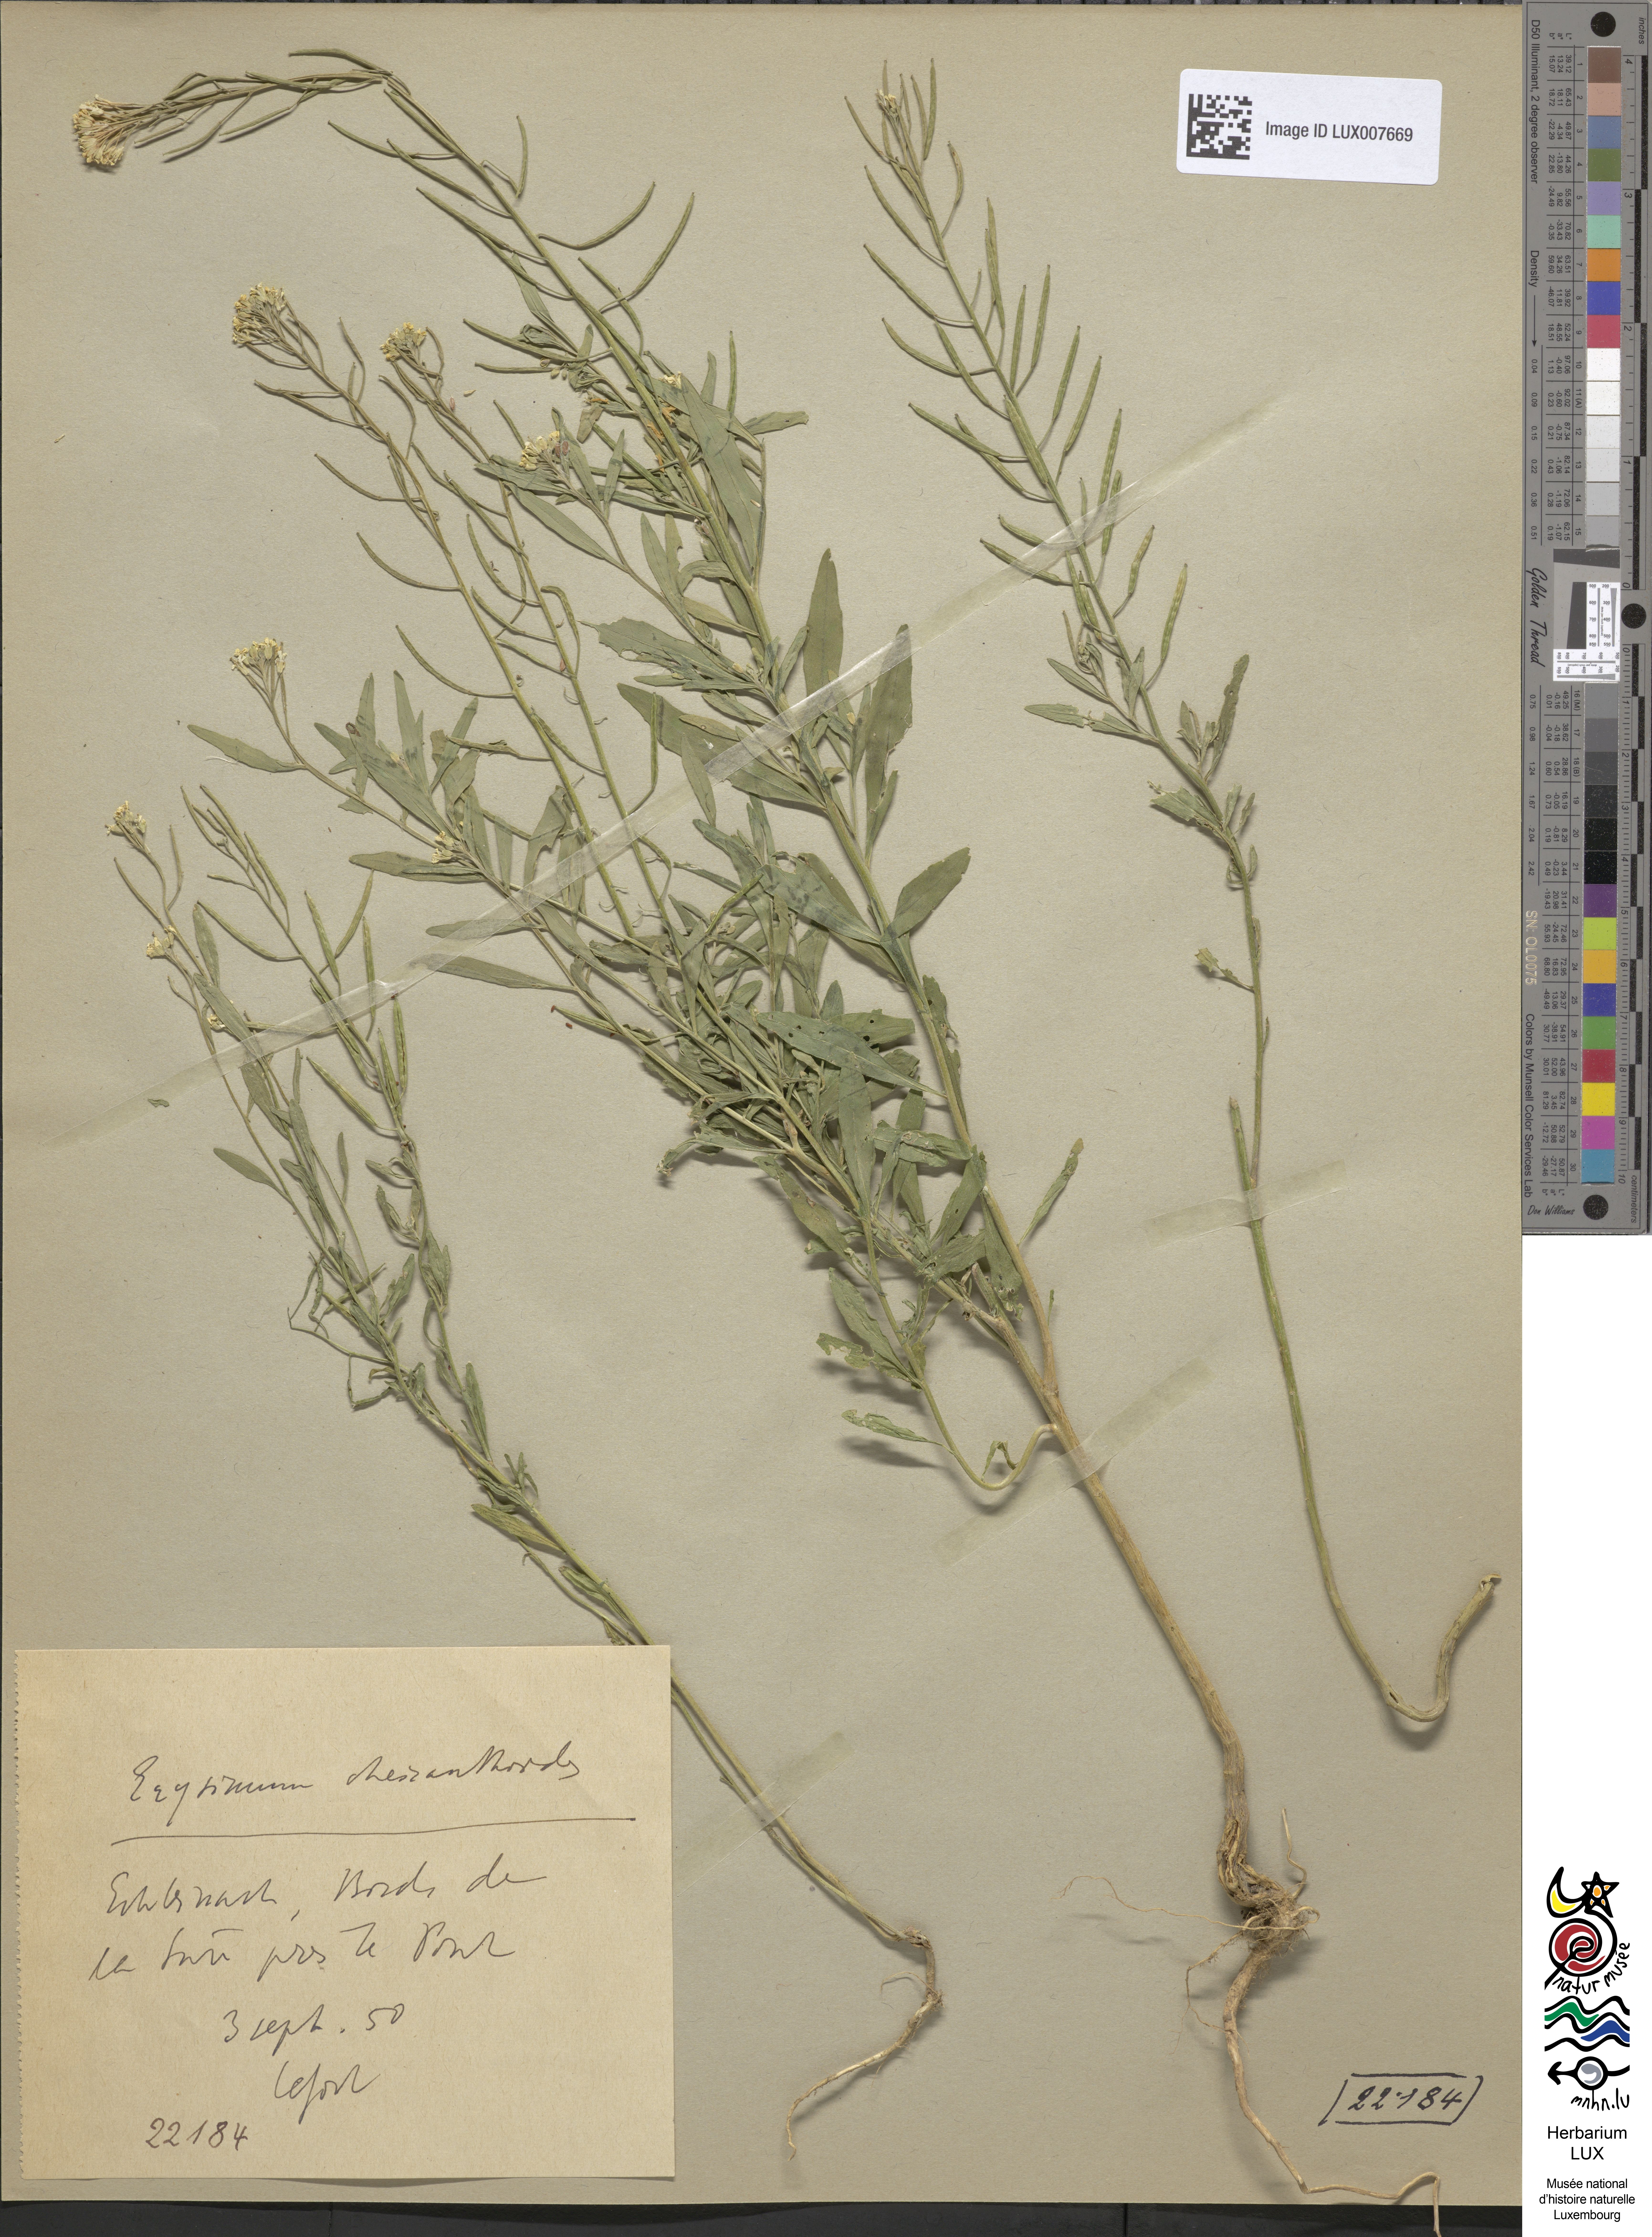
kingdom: Plantae
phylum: Tracheophyta
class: Magnoliopsida
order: Brassicales
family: Brassicaceae
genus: Erysimum
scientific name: Erysimum cheiranthoides
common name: Treacle mustard
